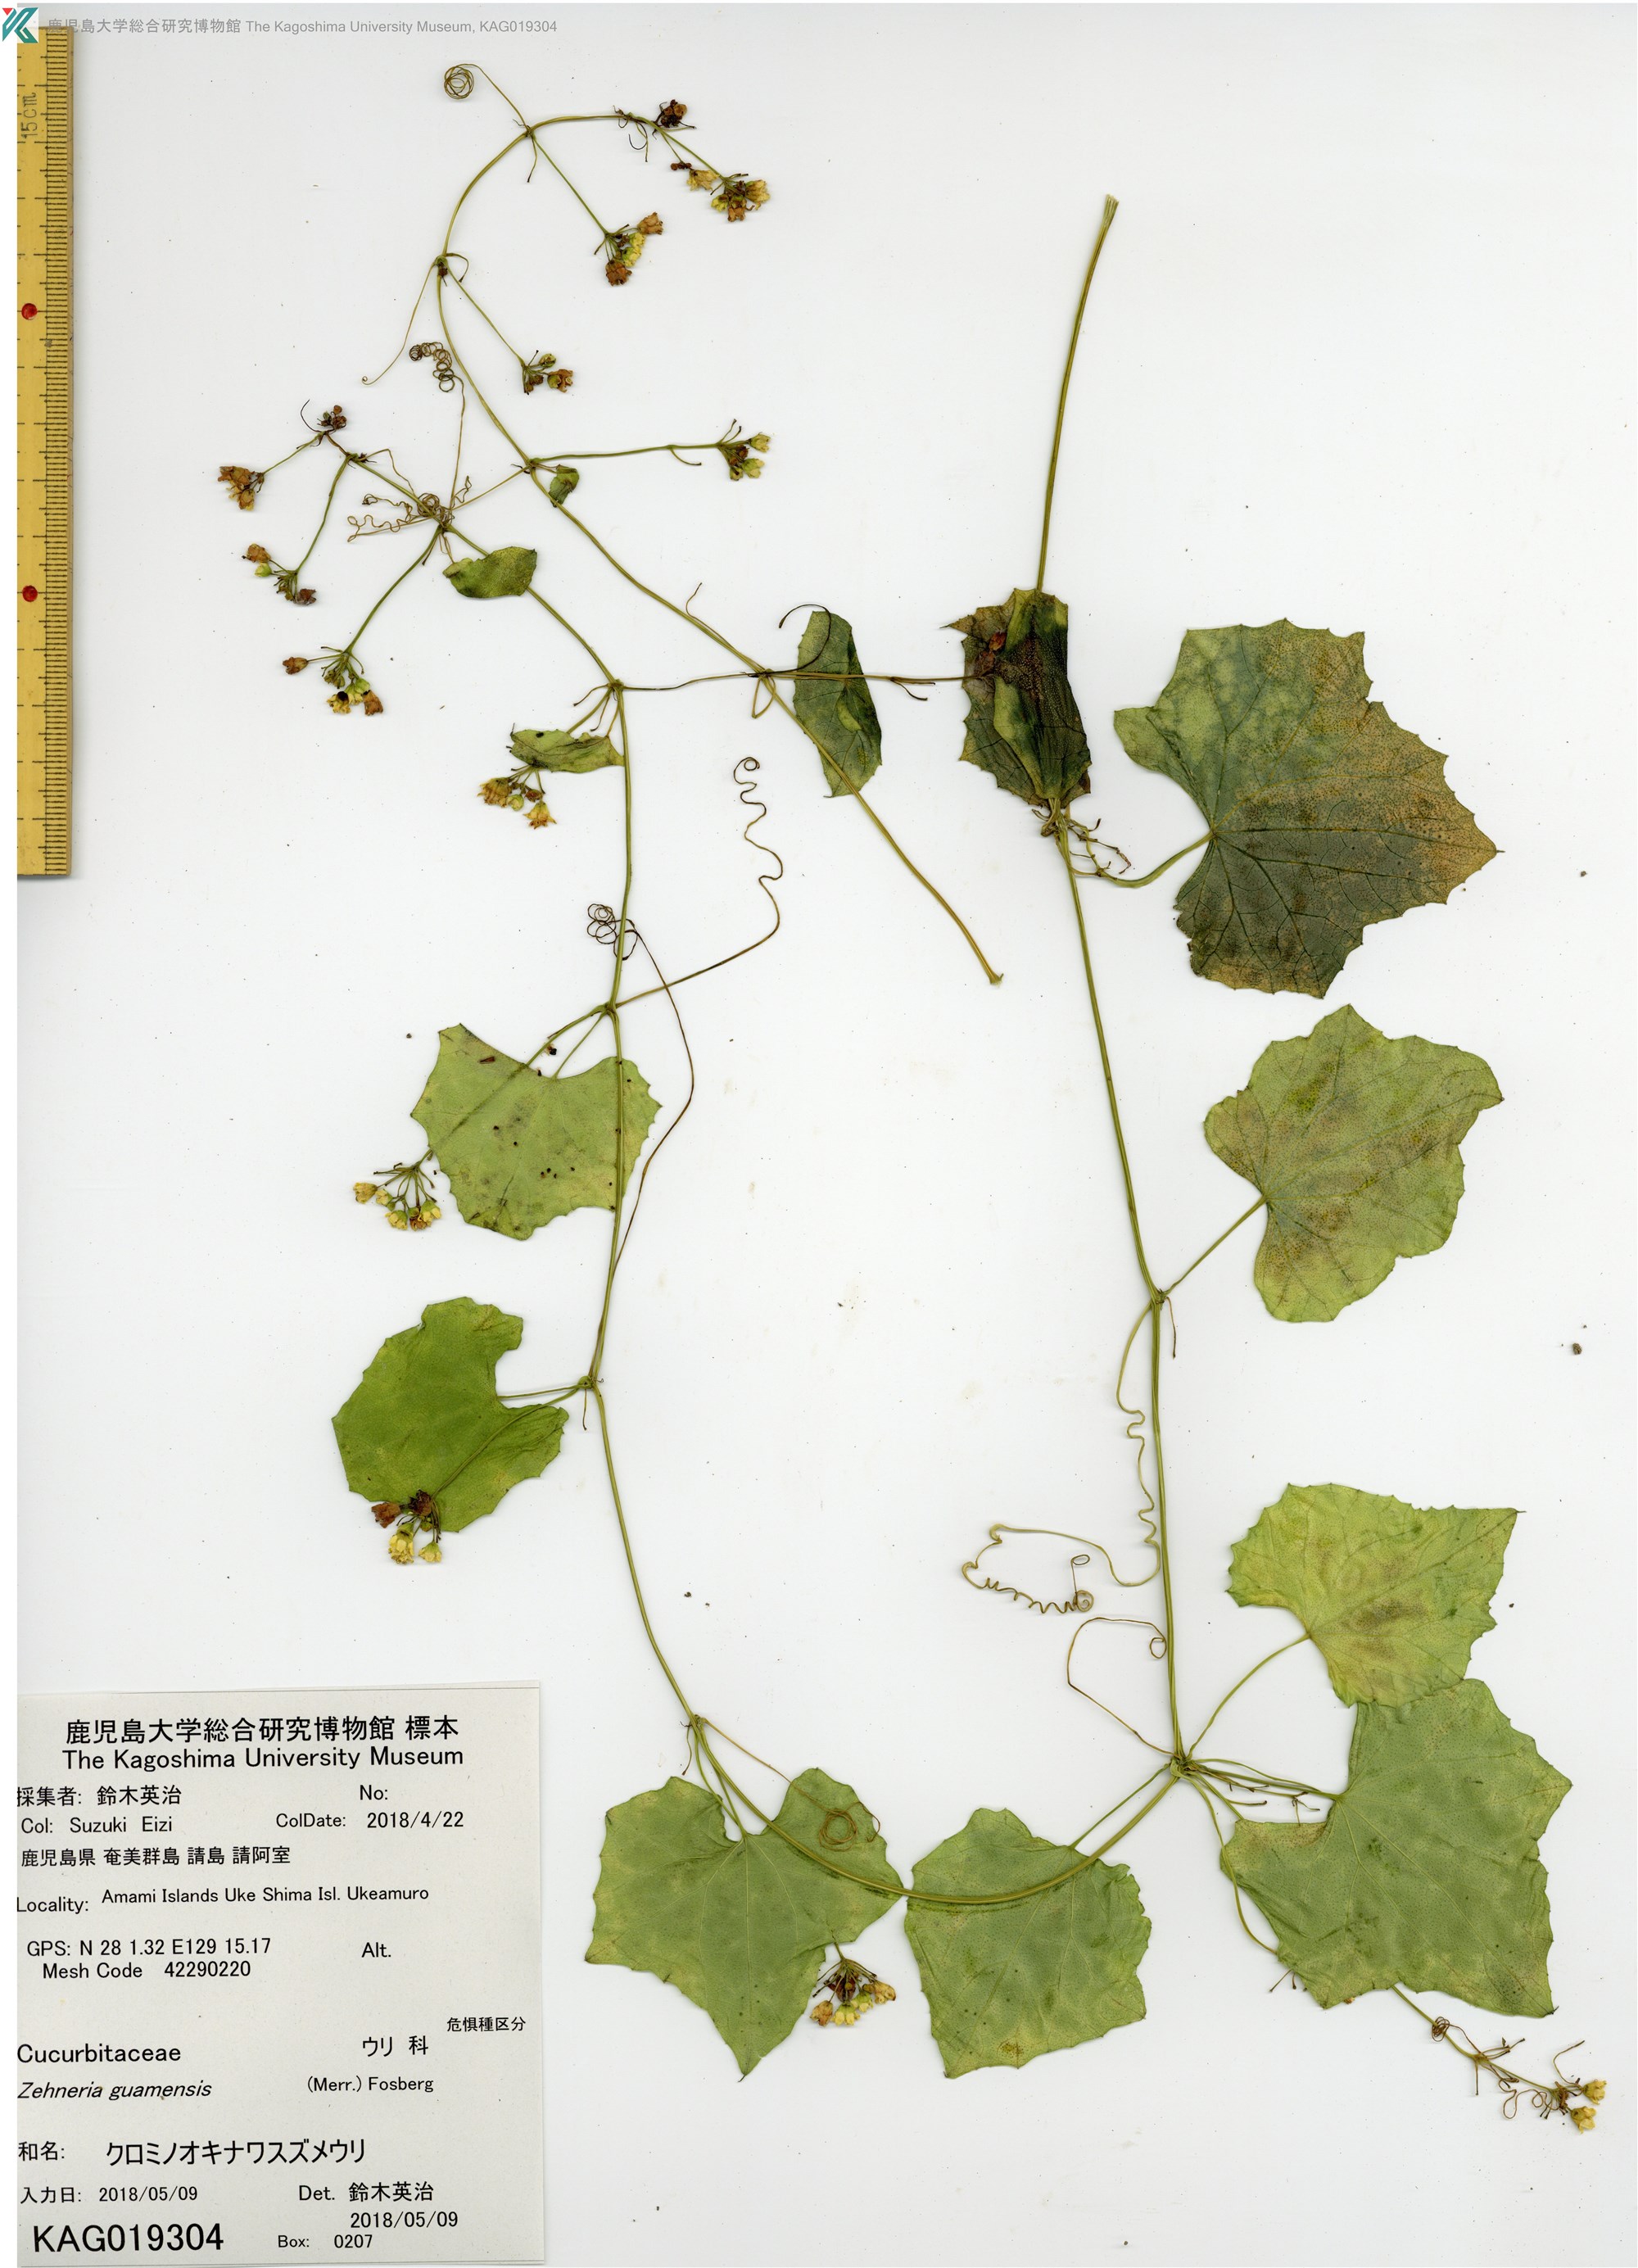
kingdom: Plantae
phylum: Tracheophyta
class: Magnoliopsida
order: Cucurbitales
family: Cucurbitaceae
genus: Zehneria
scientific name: Zehneria guamensis
